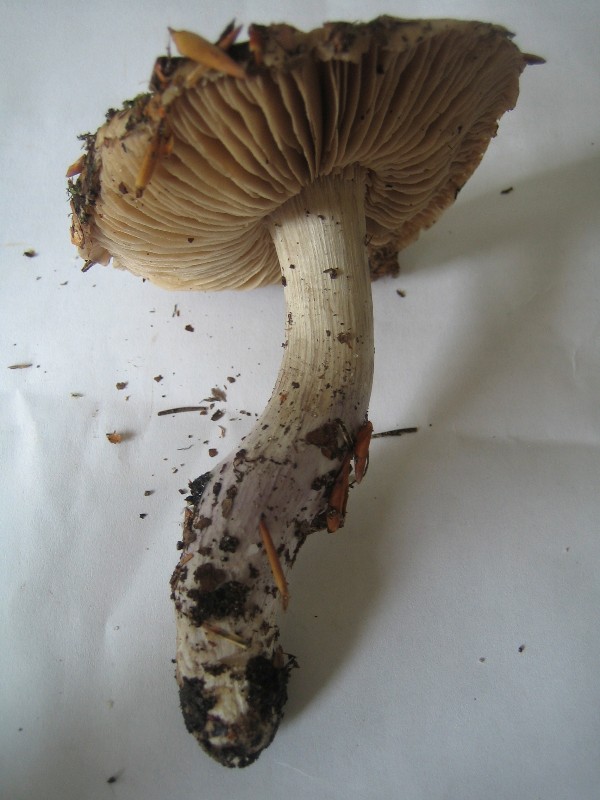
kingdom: Fungi
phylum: Basidiomycota
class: Agaricomycetes
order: Agaricales
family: Cortinariaceae
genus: Cortinarius
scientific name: Cortinarius elatior
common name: høj slørhat
